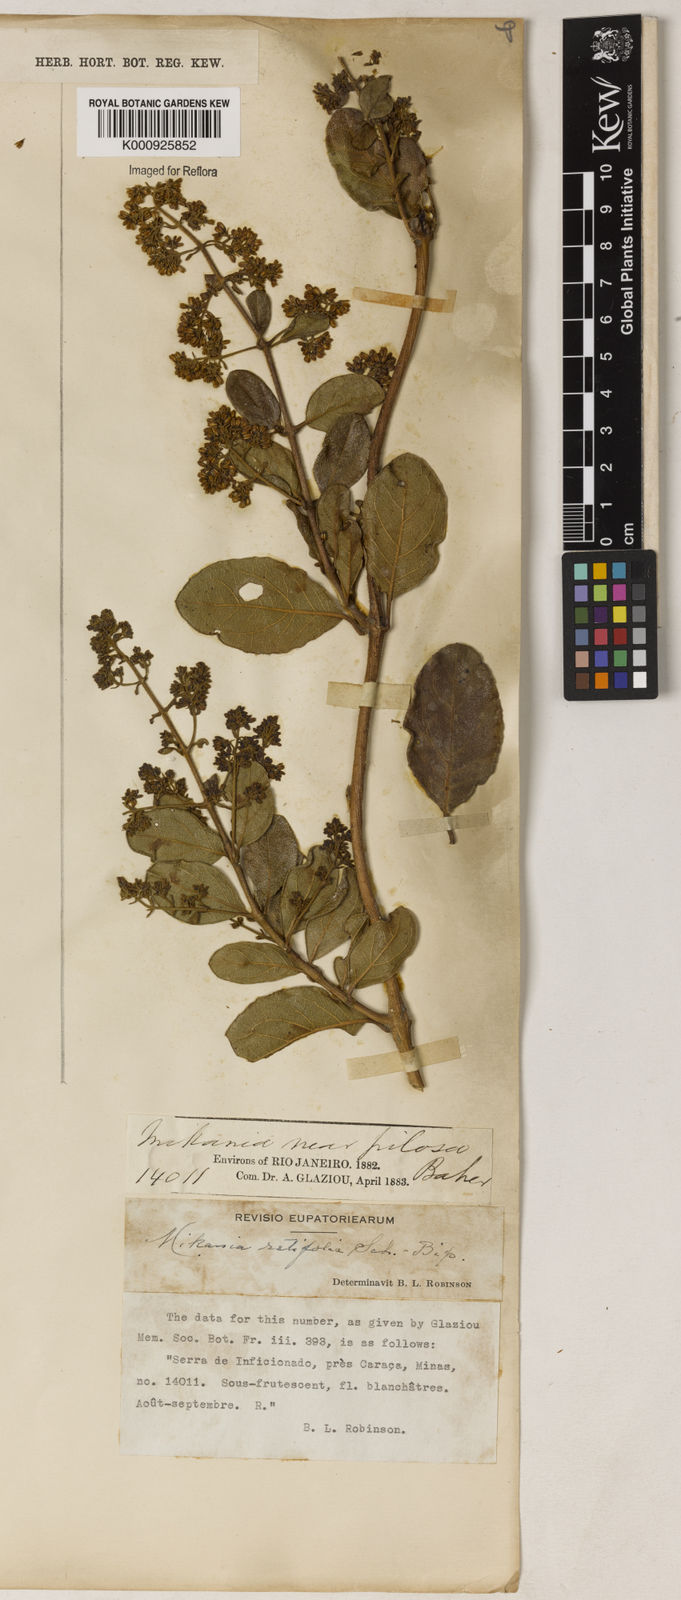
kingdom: Plantae
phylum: Tracheophyta
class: Magnoliopsida
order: Asterales
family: Asteraceae
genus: Mikania
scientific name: Mikania
